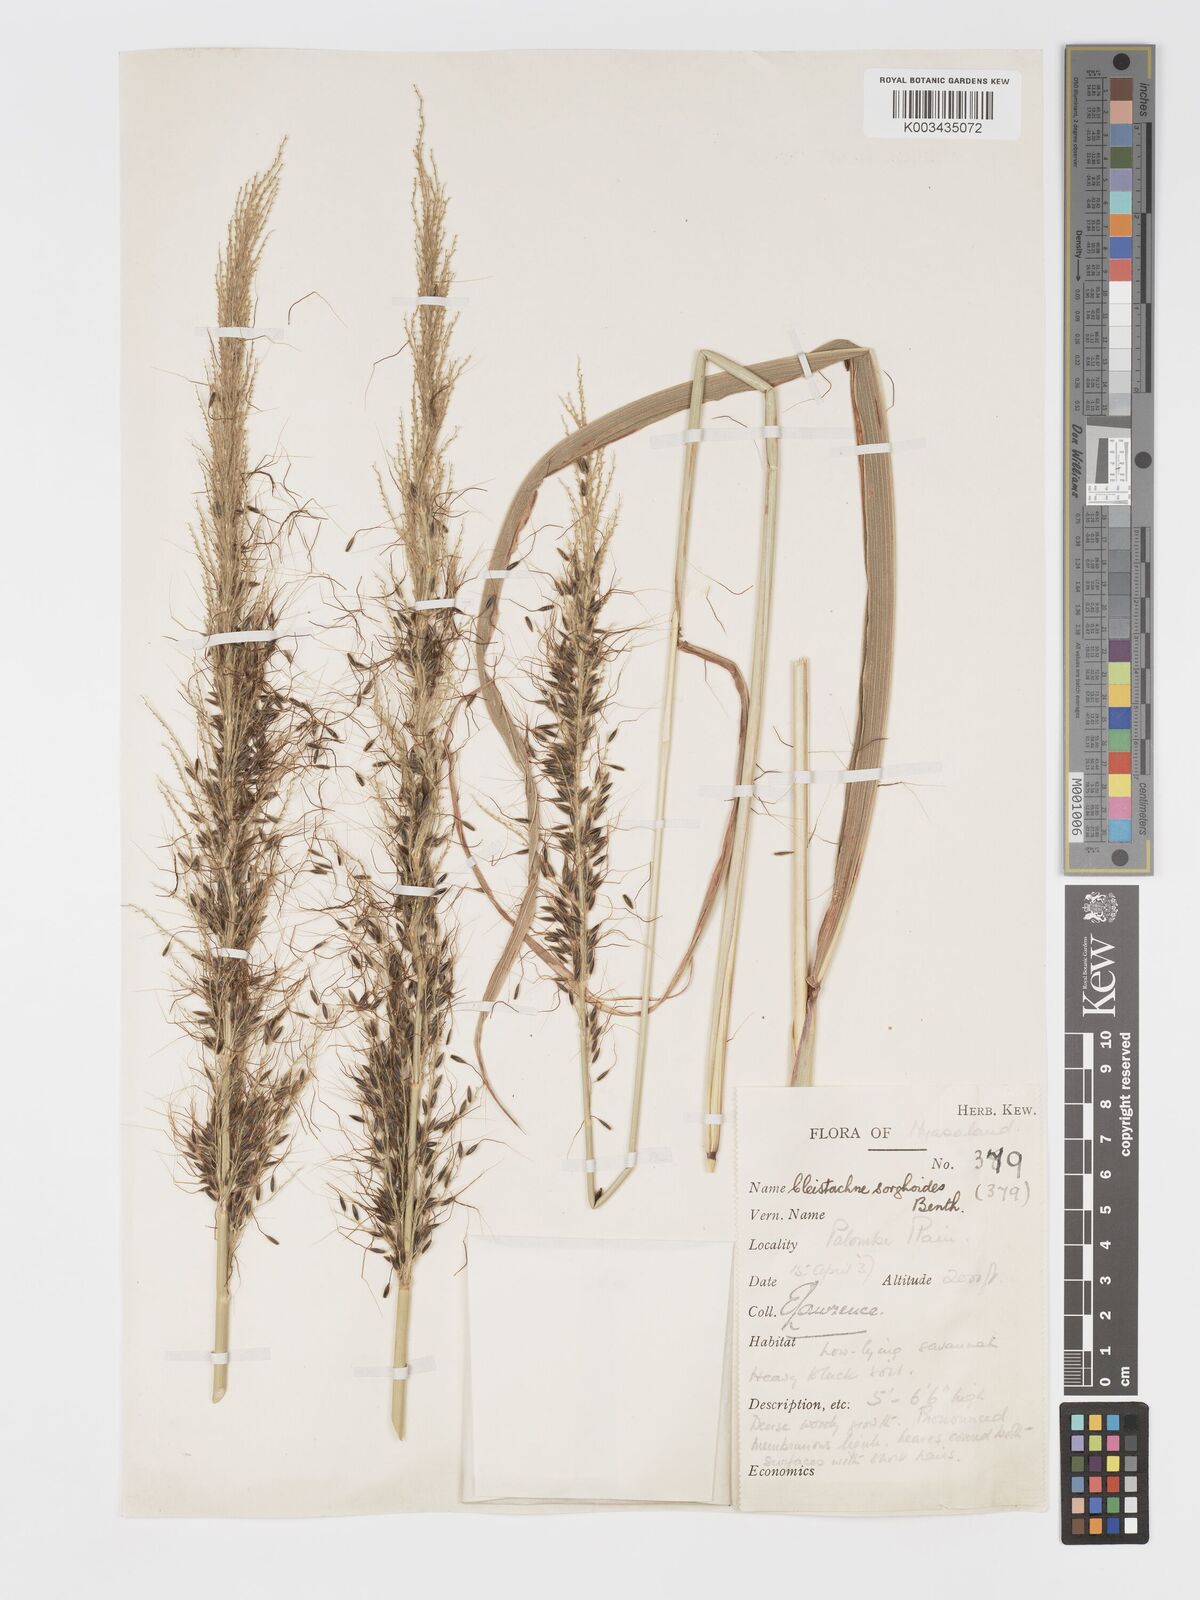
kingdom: Plantae
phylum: Tracheophyta
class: Liliopsida
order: Poales
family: Poaceae
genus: Cleistachne
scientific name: Cleistachne sorghoides
